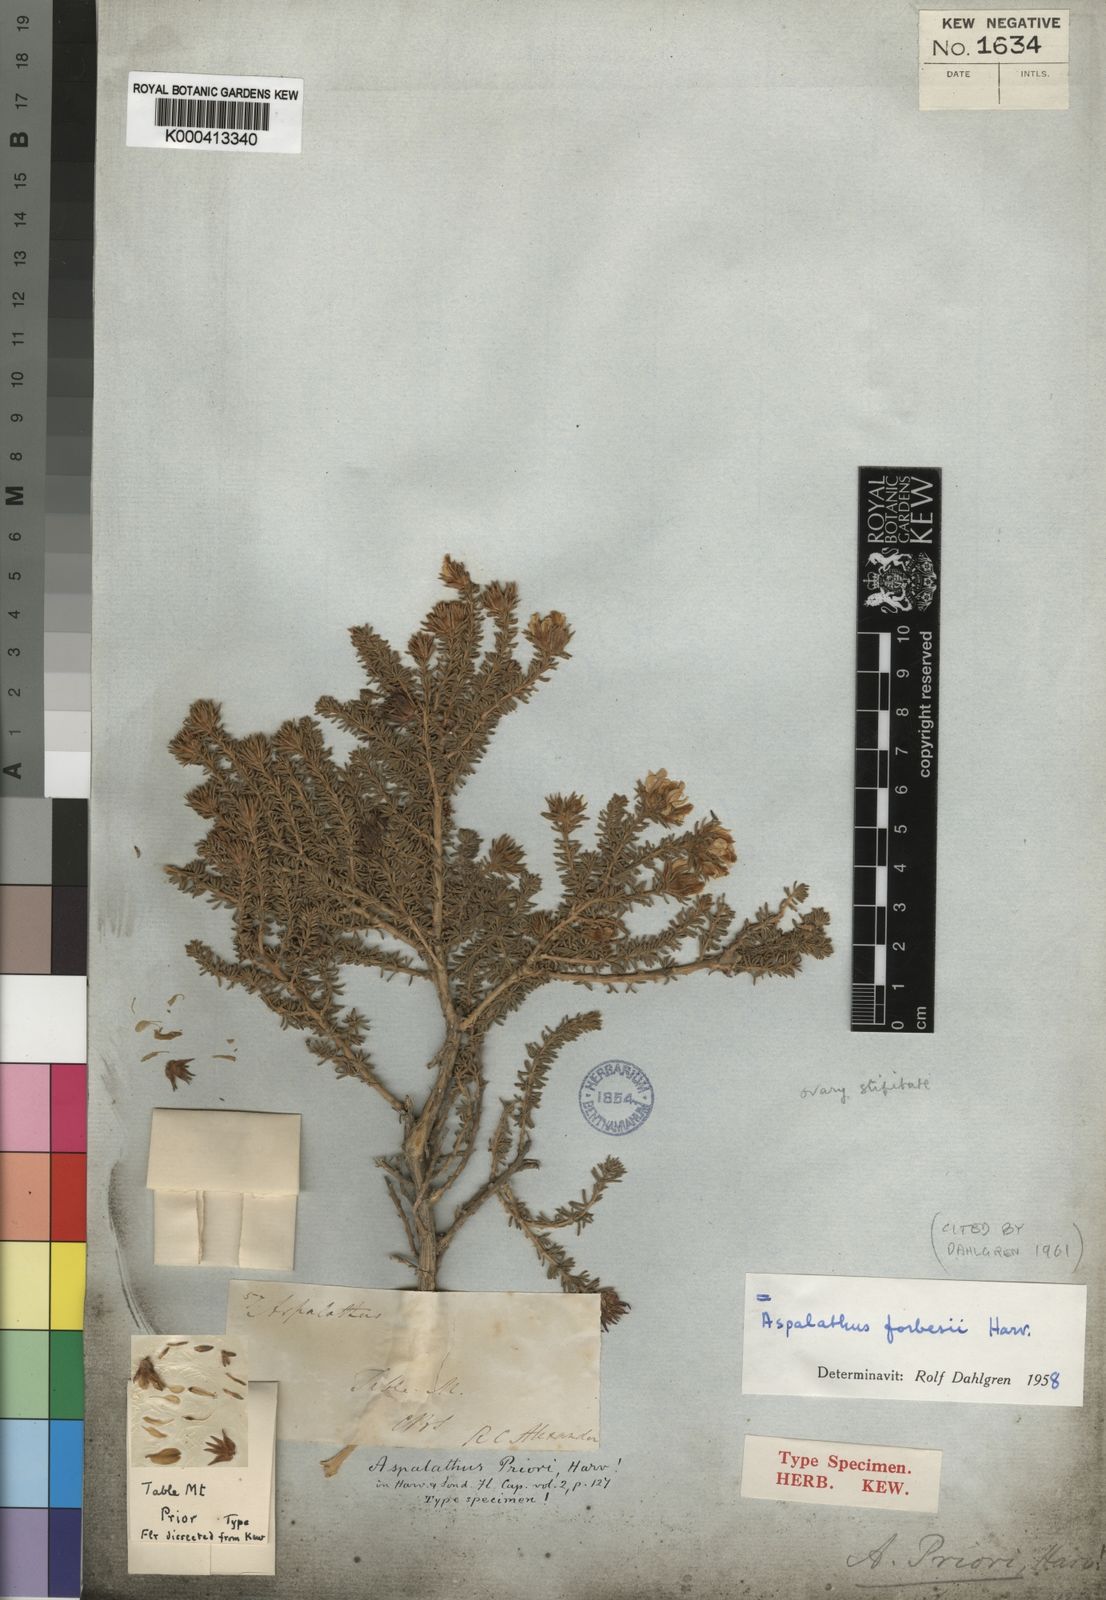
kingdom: Plantae
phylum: Tracheophyta
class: Magnoliopsida
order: Fabales
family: Fabaceae
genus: Aspalathus
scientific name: Aspalathus forbesii
